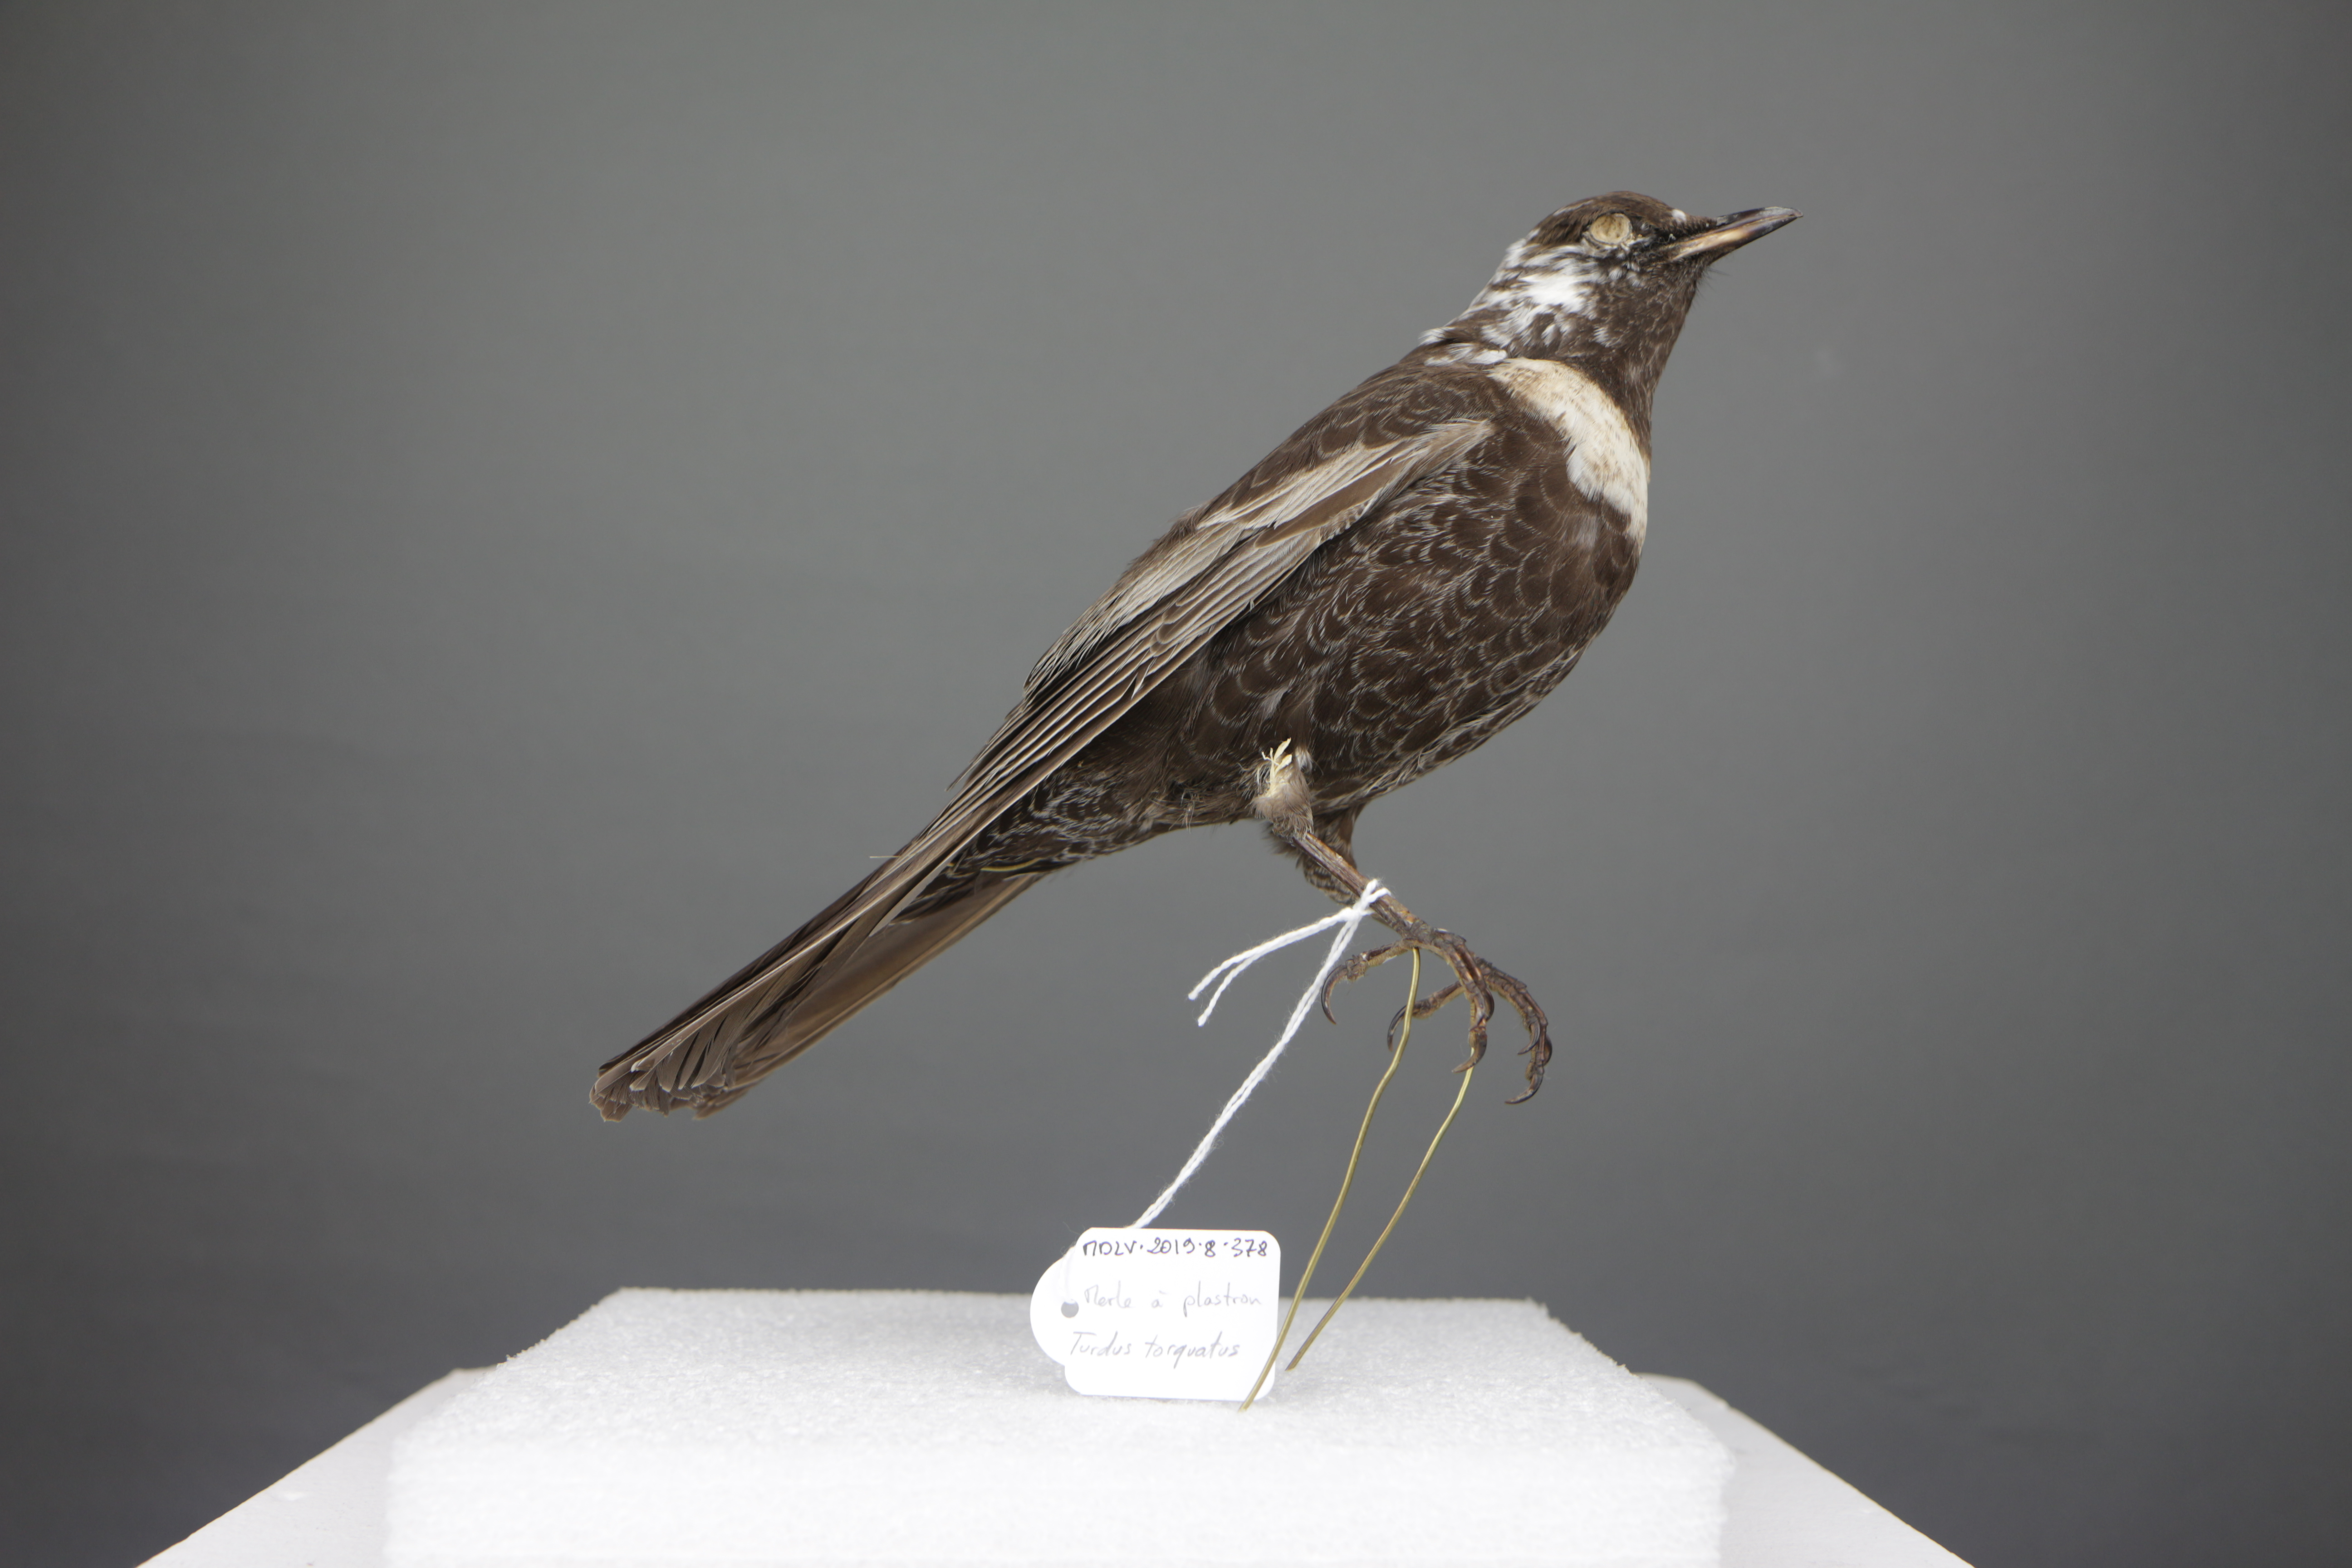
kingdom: Animalia
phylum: Chordata
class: Aves
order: Passeriformes
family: Turdidae
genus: Turdus
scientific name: Turdus torquatus
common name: Ring ouzel
